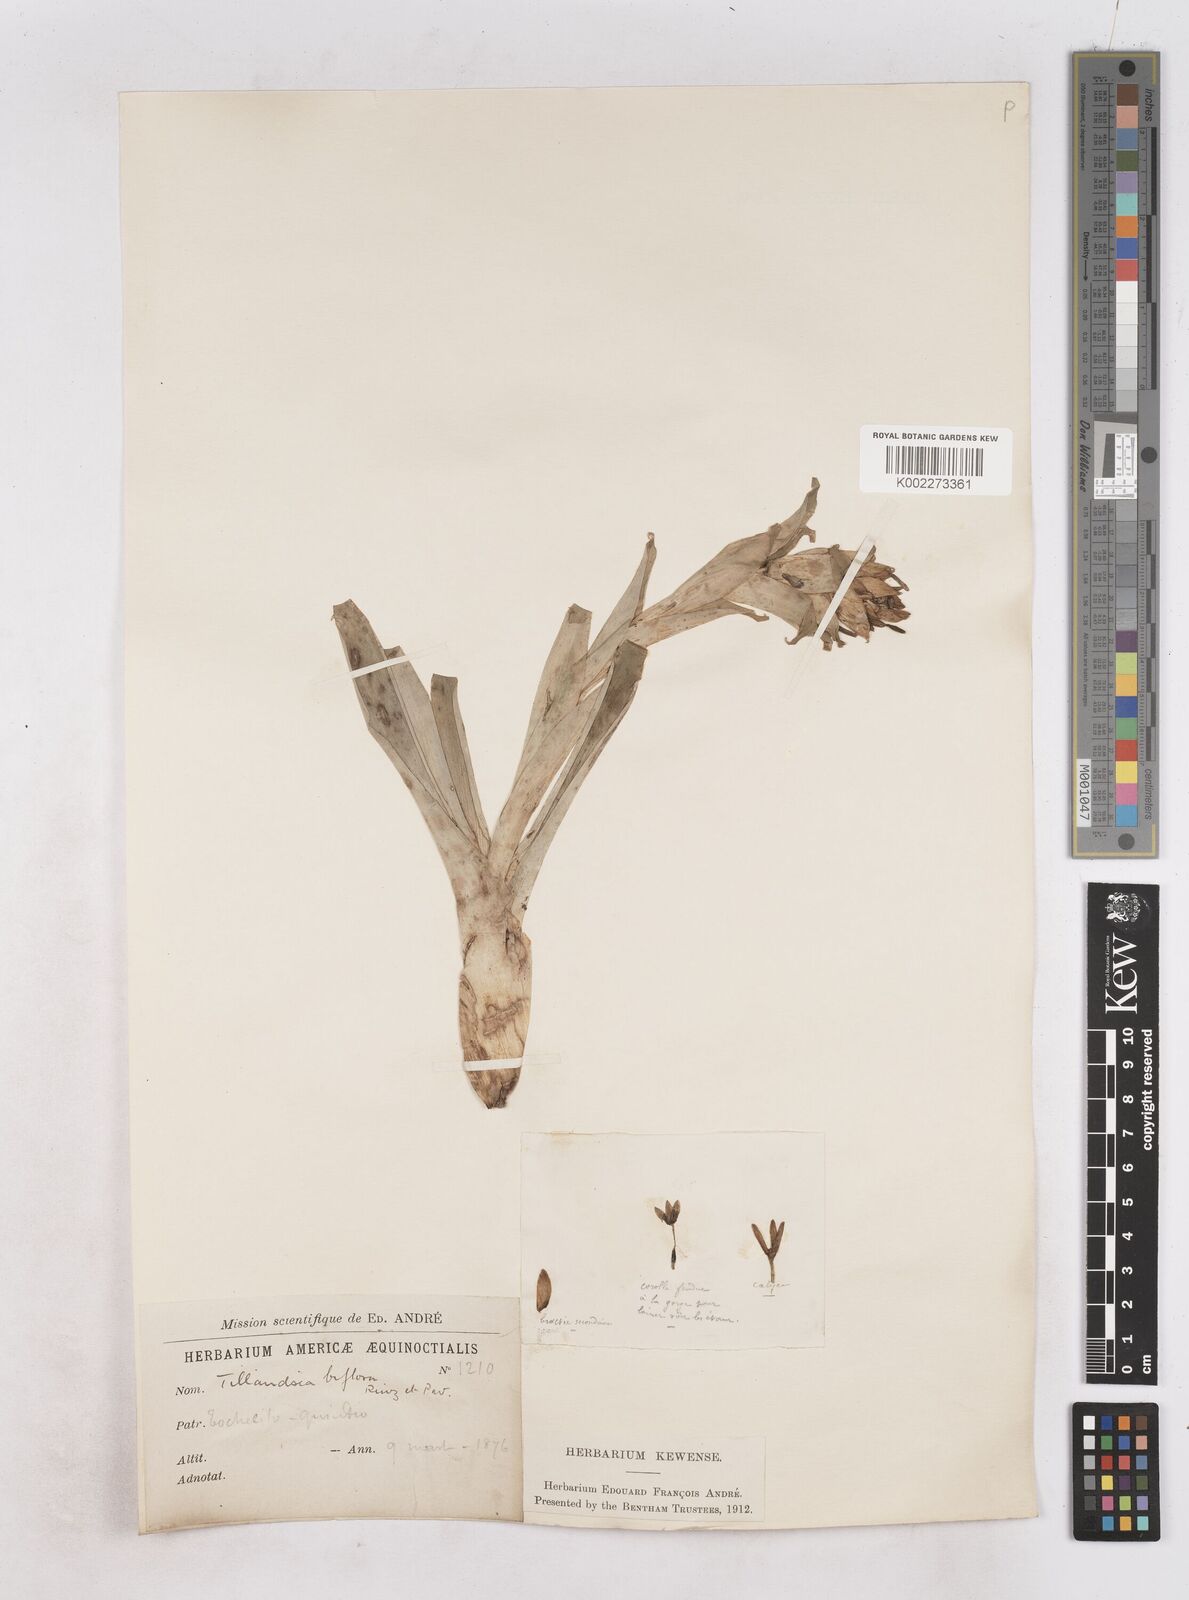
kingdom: Plantae
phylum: Tracheophyta
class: Liliopsida
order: Poales
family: Bromeliaceae
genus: Tillandsia
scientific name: Tillandsia biflora
